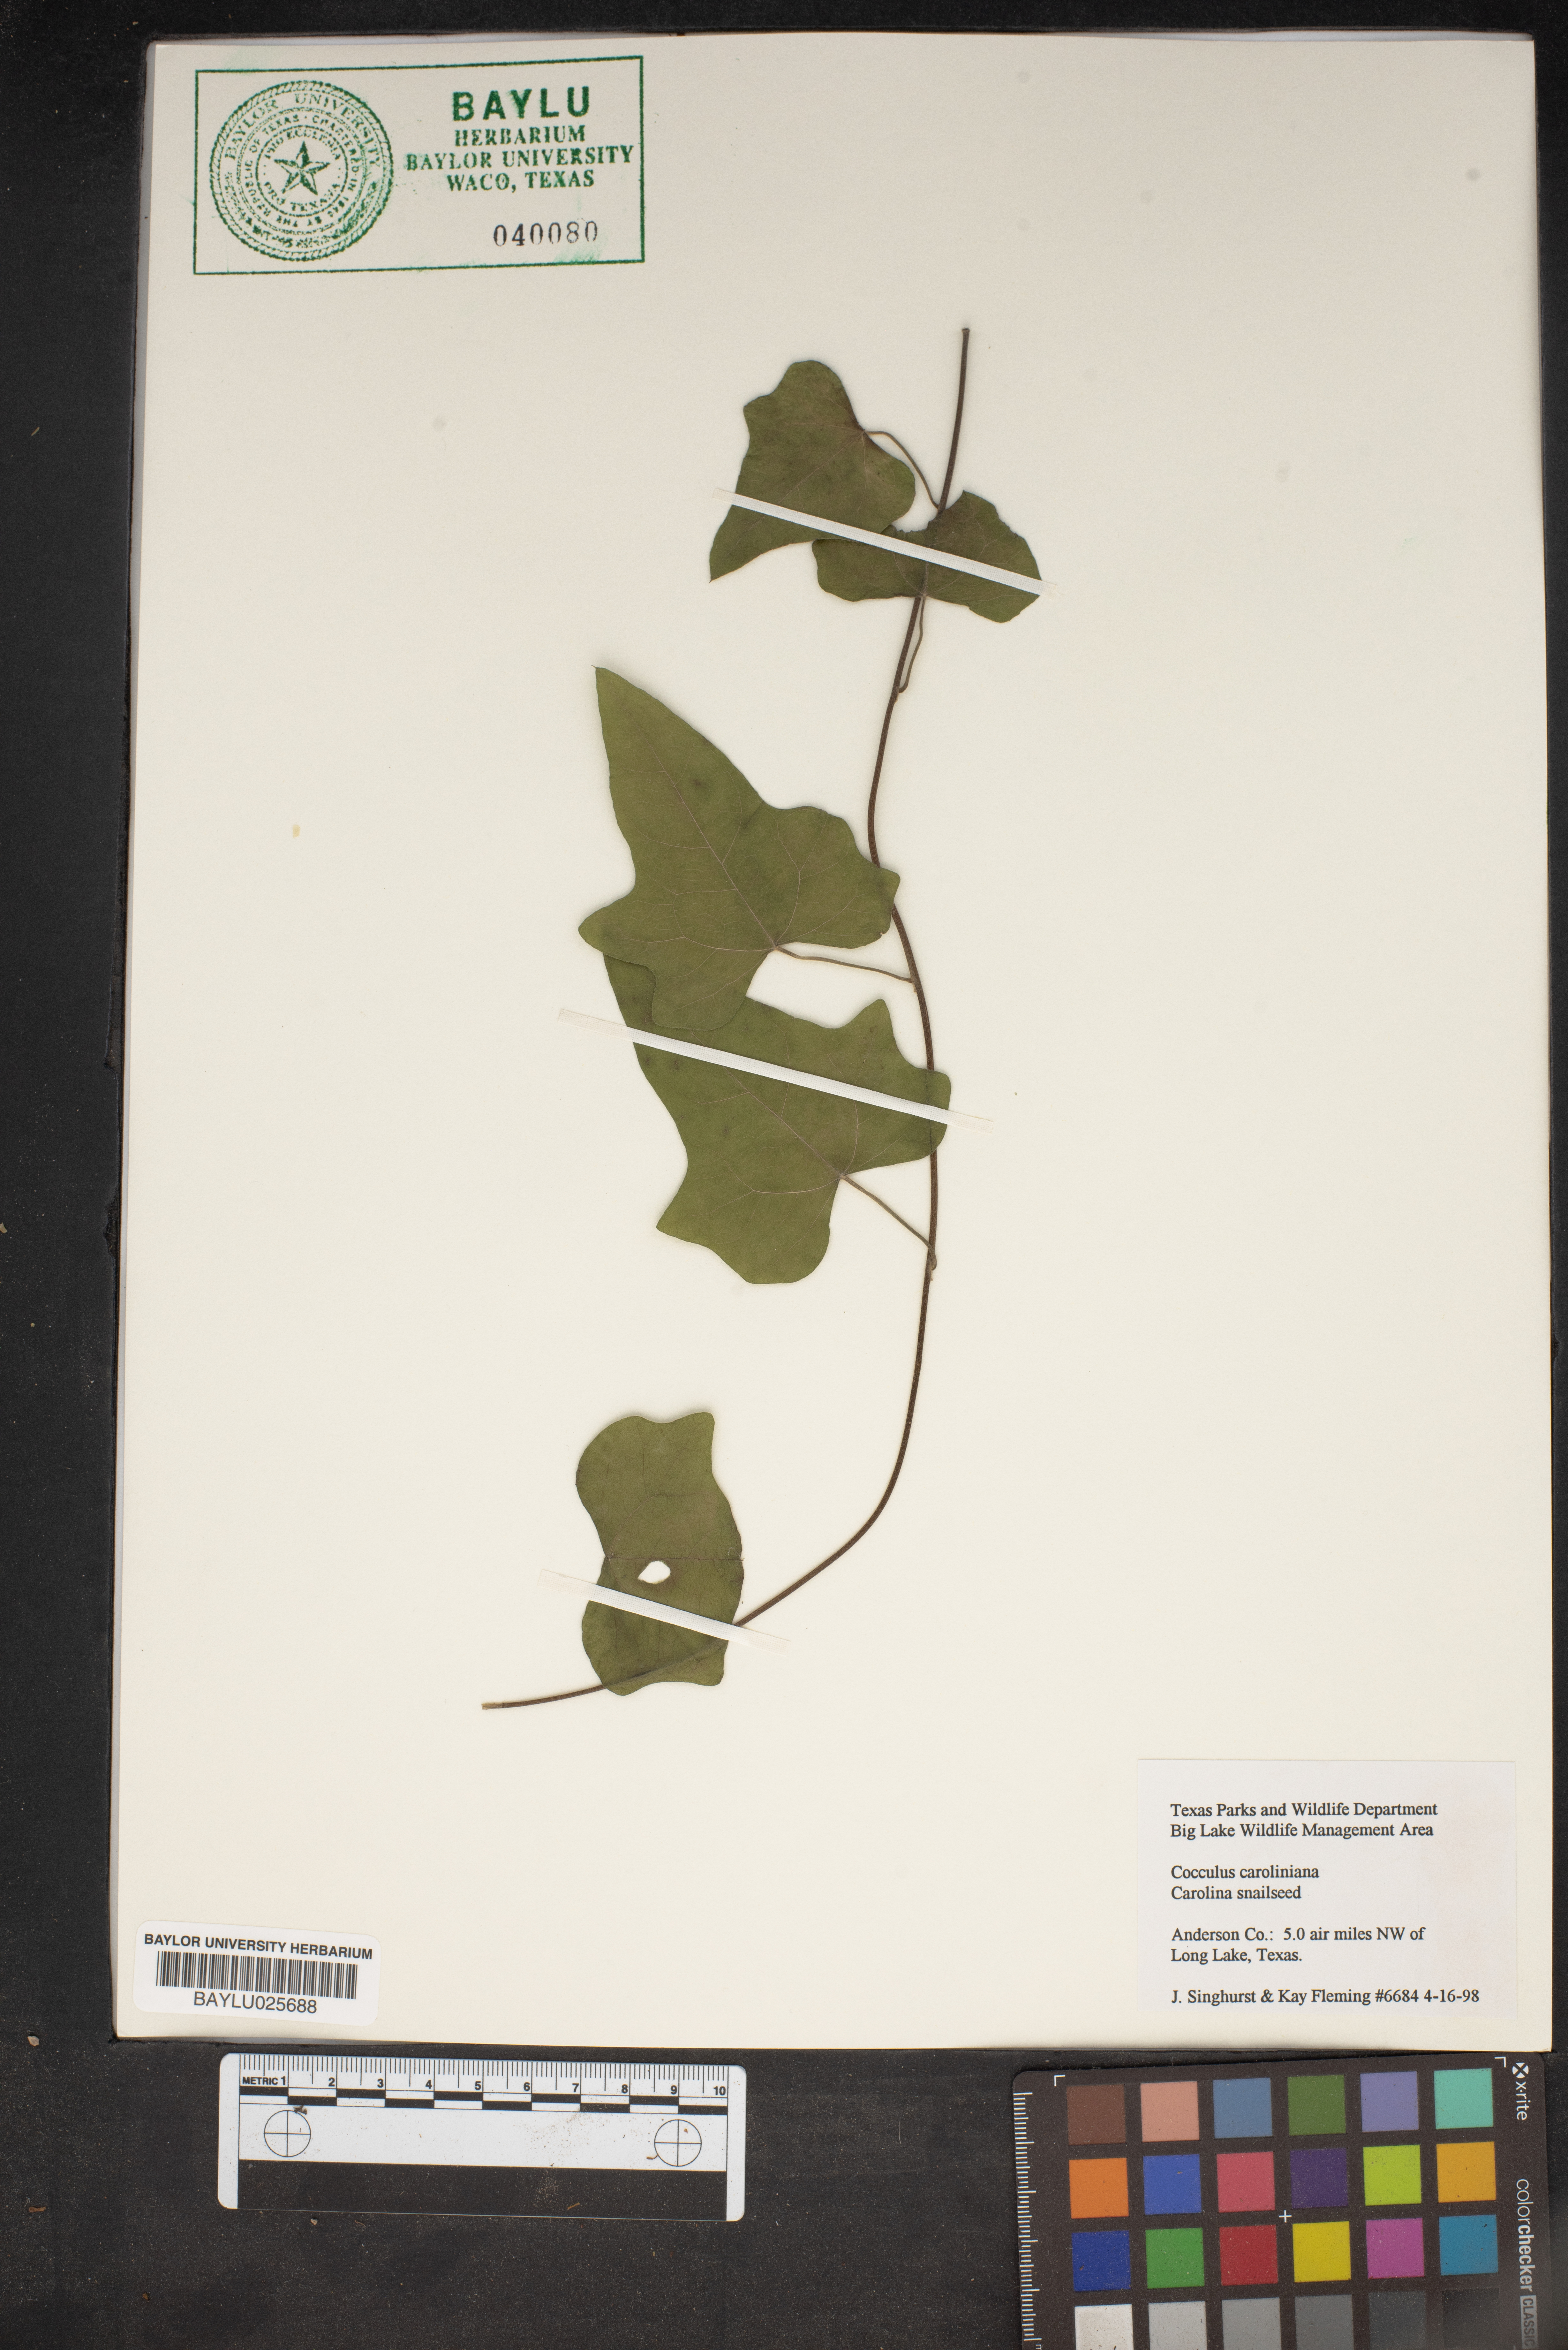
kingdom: Plantae
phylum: Tracheophyta
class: Magnoliopsida
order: Ranunculales
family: Menispermaceae
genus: Cocculus
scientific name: Cocculus carolinus
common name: Carolina moonseed
